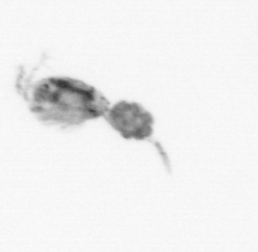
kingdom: Animalia
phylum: Arthropoda
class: Copepoda
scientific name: Copepoda
